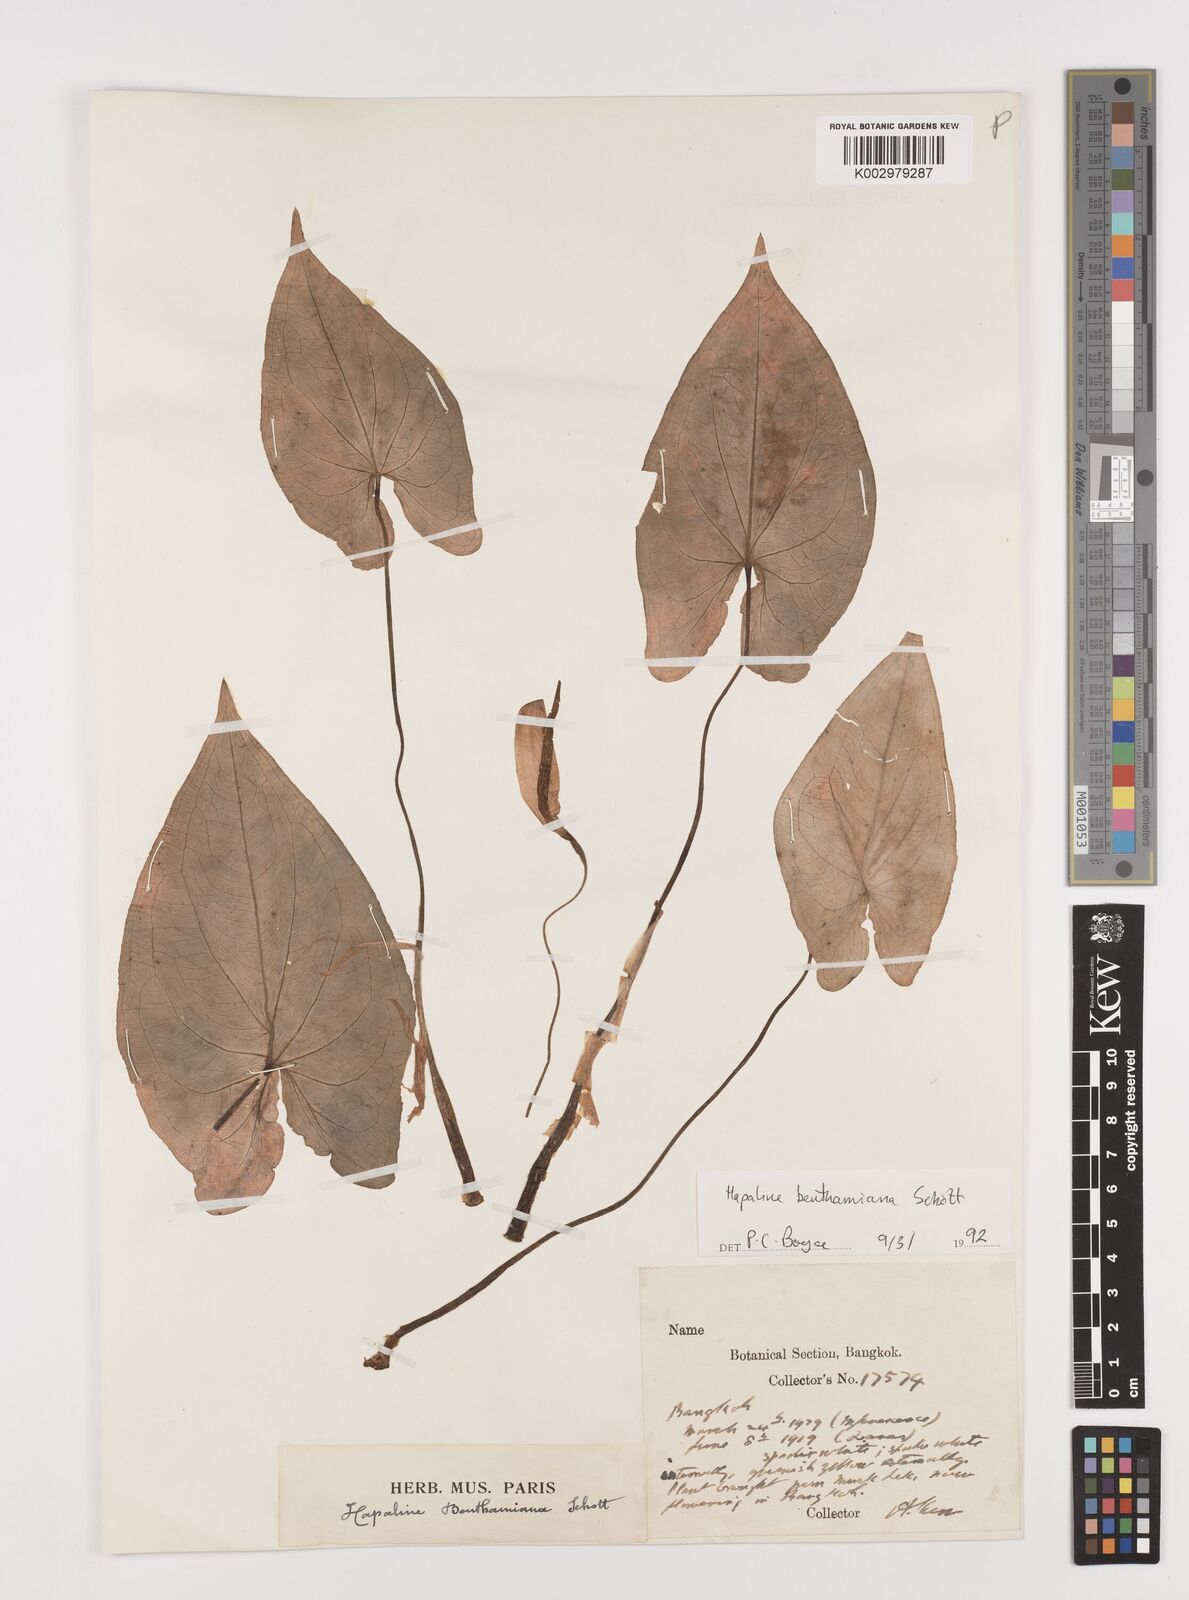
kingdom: Plantae
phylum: Tracheophyta
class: Liliopsida
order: Alismatales
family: Araceae
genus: Hapaline
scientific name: Hapaline benthamiana
